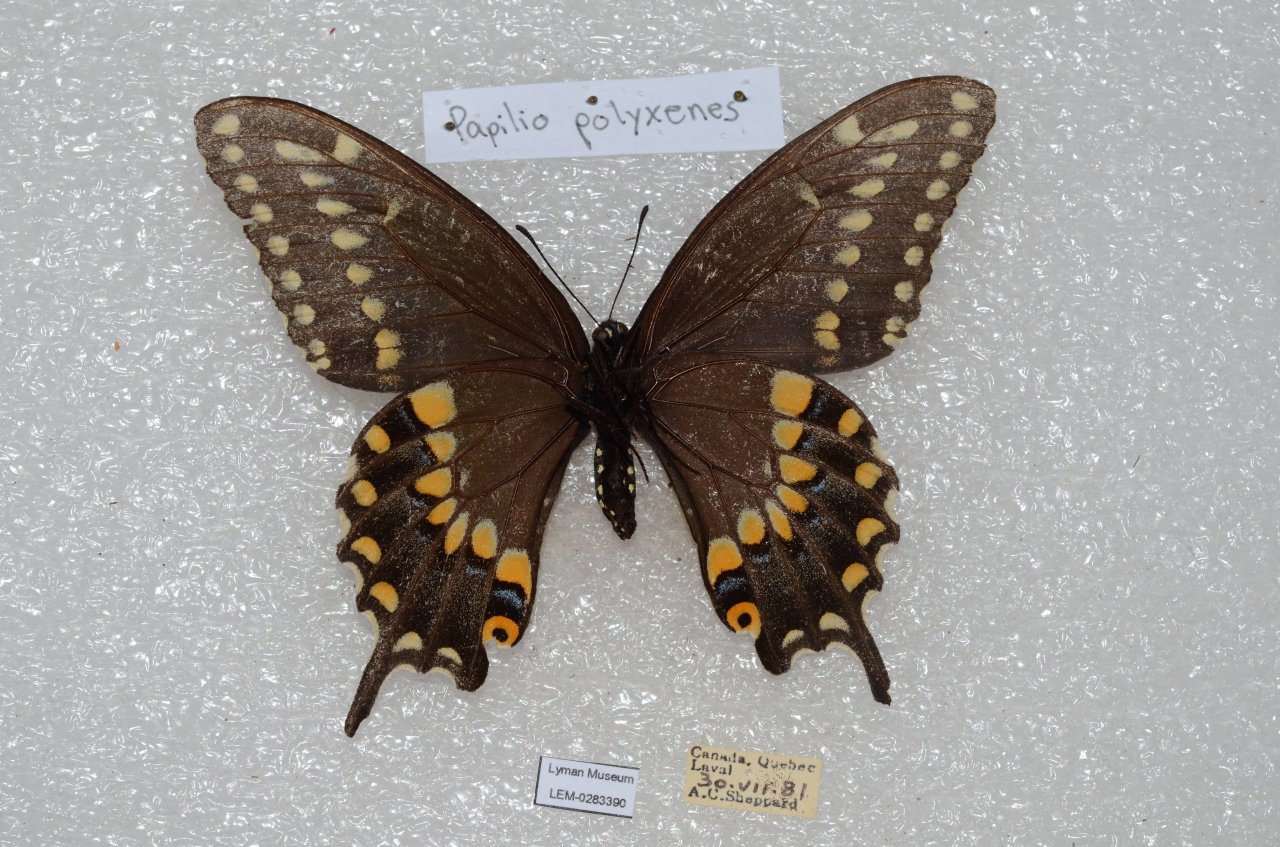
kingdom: Animalia
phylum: Arthropoda
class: Insecta
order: Lepidoptera
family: Papilionidae
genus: Papilio
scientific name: Papilio polyxenes
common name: Black Swallowtail
